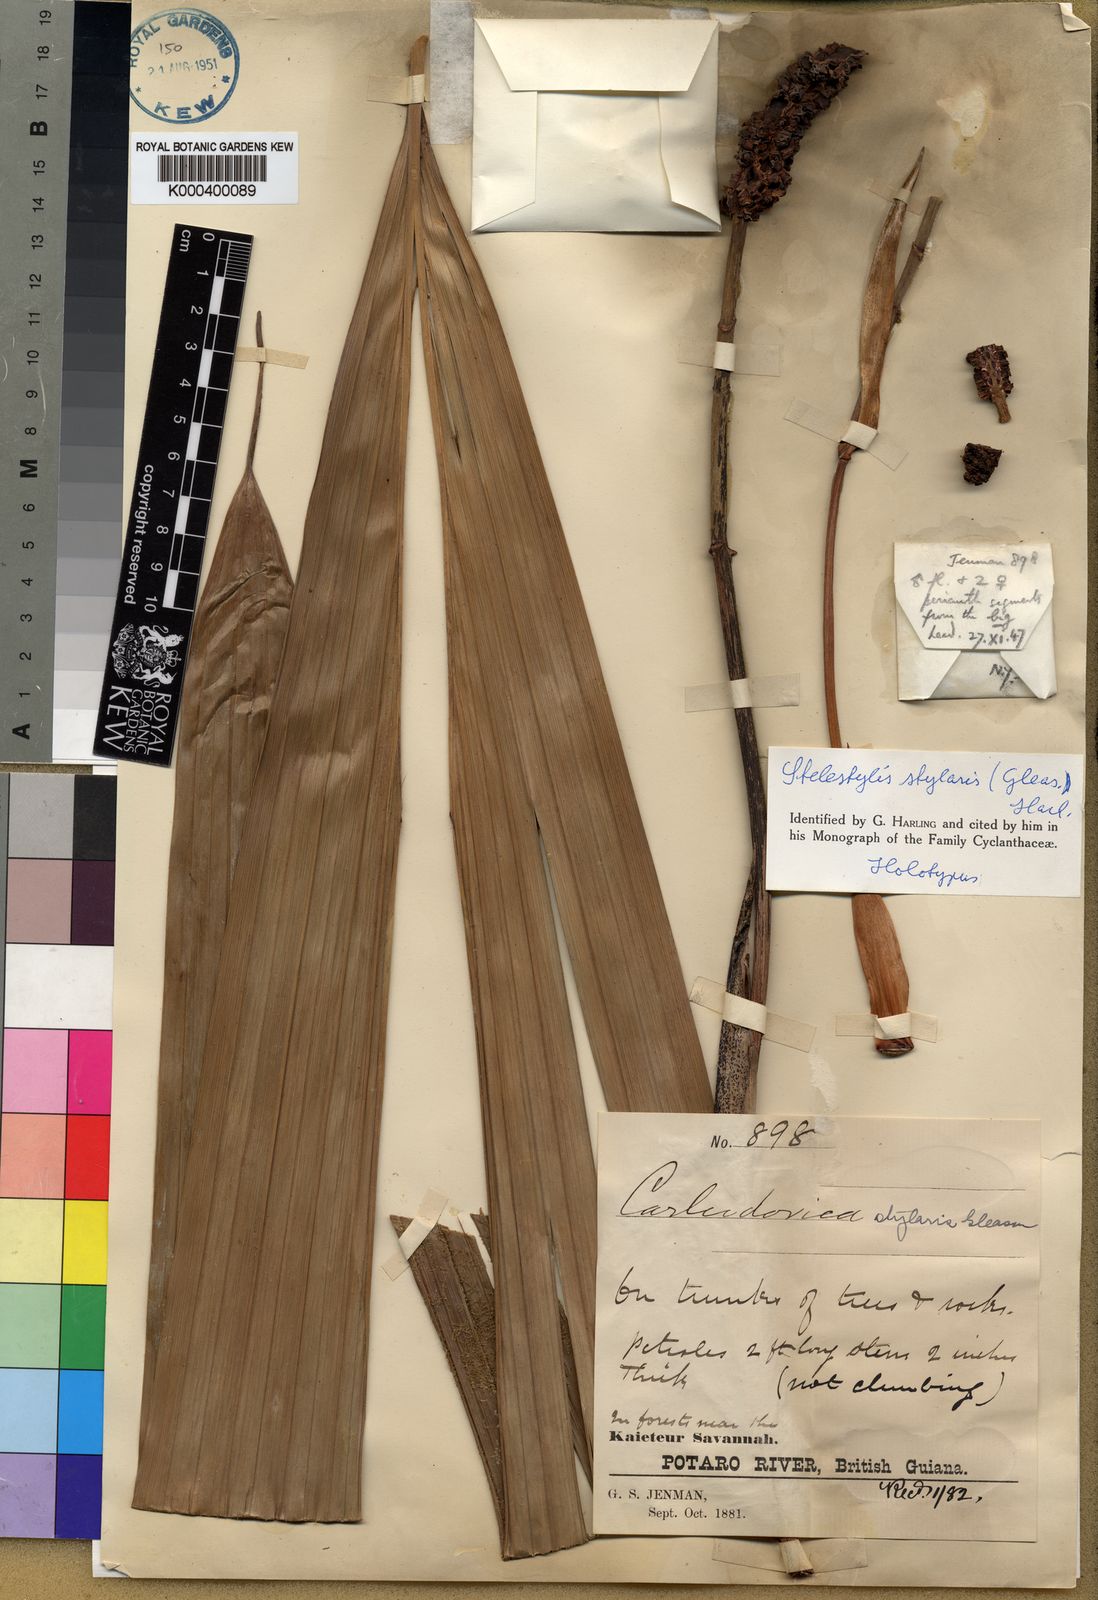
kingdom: Plantae
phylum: Tracheophyta
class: Liliopsida
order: Pandanales
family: Cyclanthaceae
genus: Stelestylis
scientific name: Stelestylis stylaris
